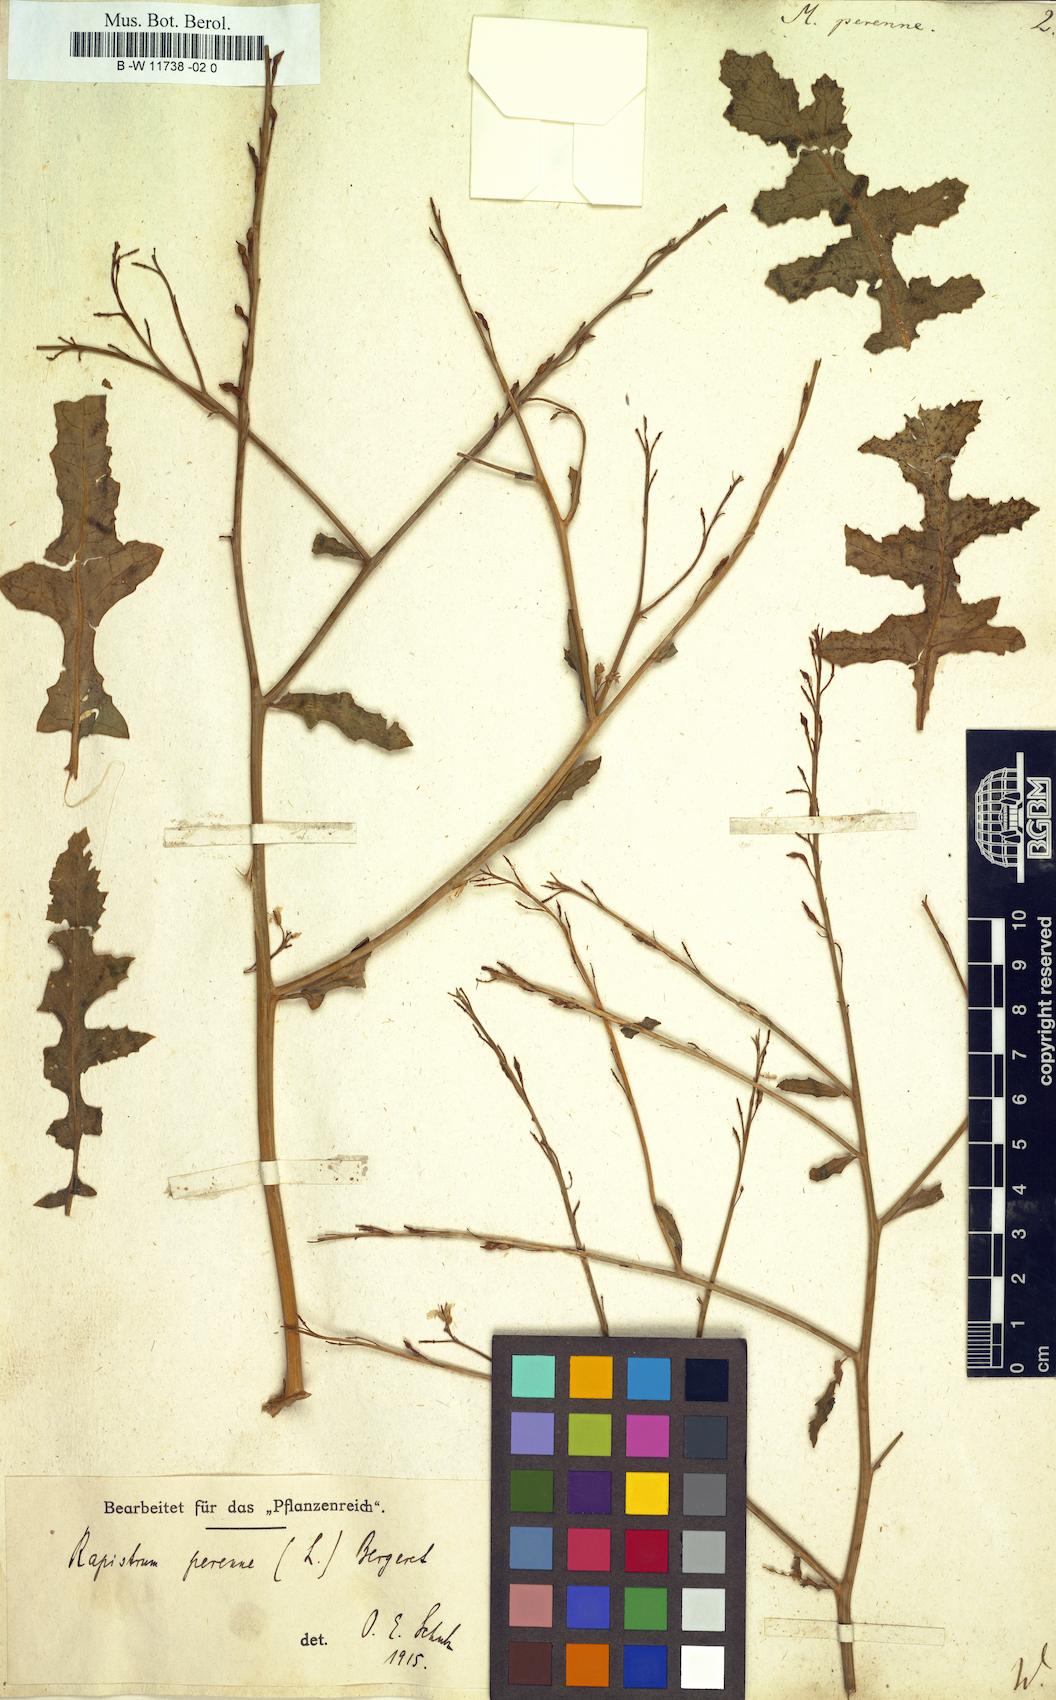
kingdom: Plantae
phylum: Tracheophyta
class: Magnoliopsida
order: Brassicales
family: Brassicaceae
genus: Myagrum
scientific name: Myagrum perenne
